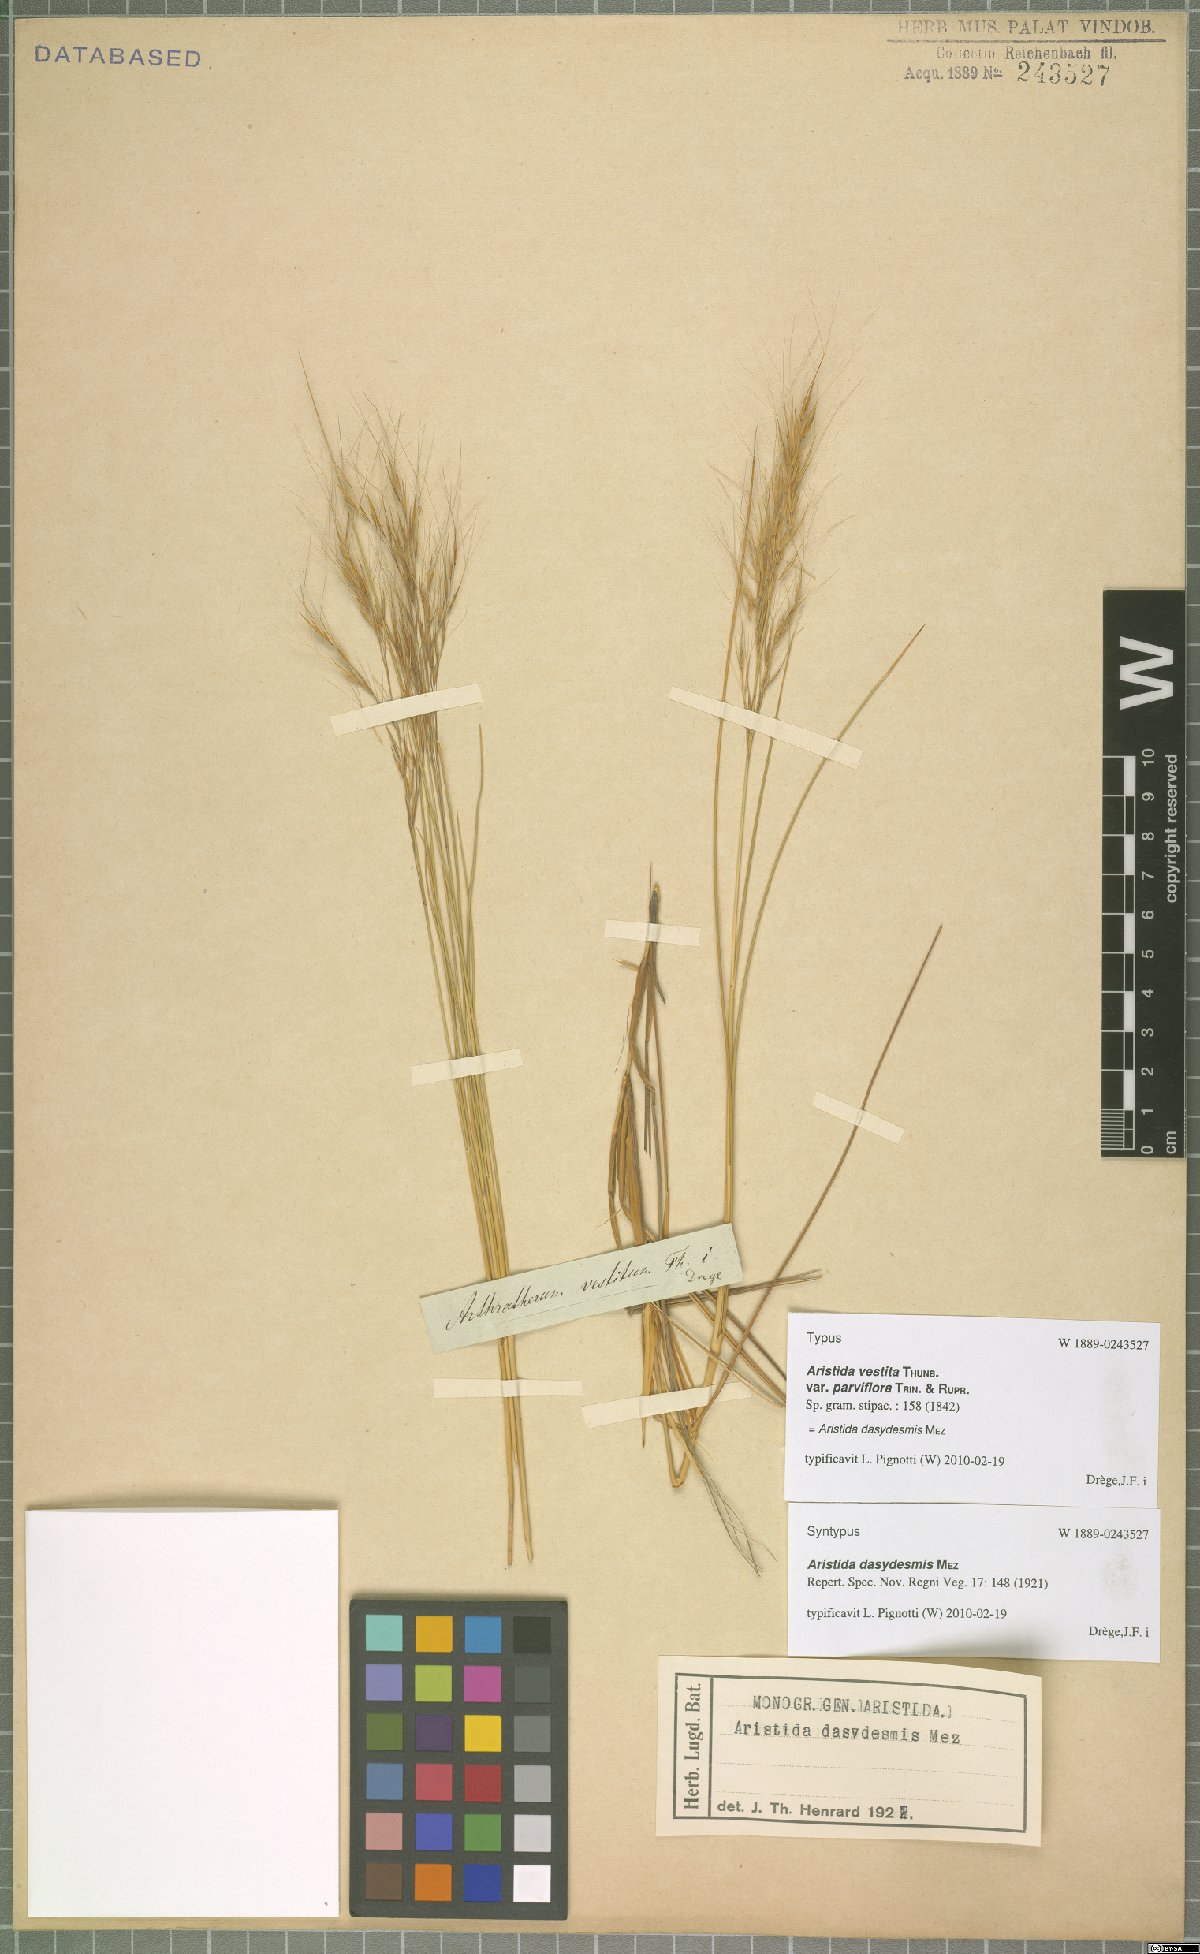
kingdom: Plantae
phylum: Tracheophyta
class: Liliopsida
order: Poales
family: Poaceae
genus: Aristida
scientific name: Aristida dasydesmis
